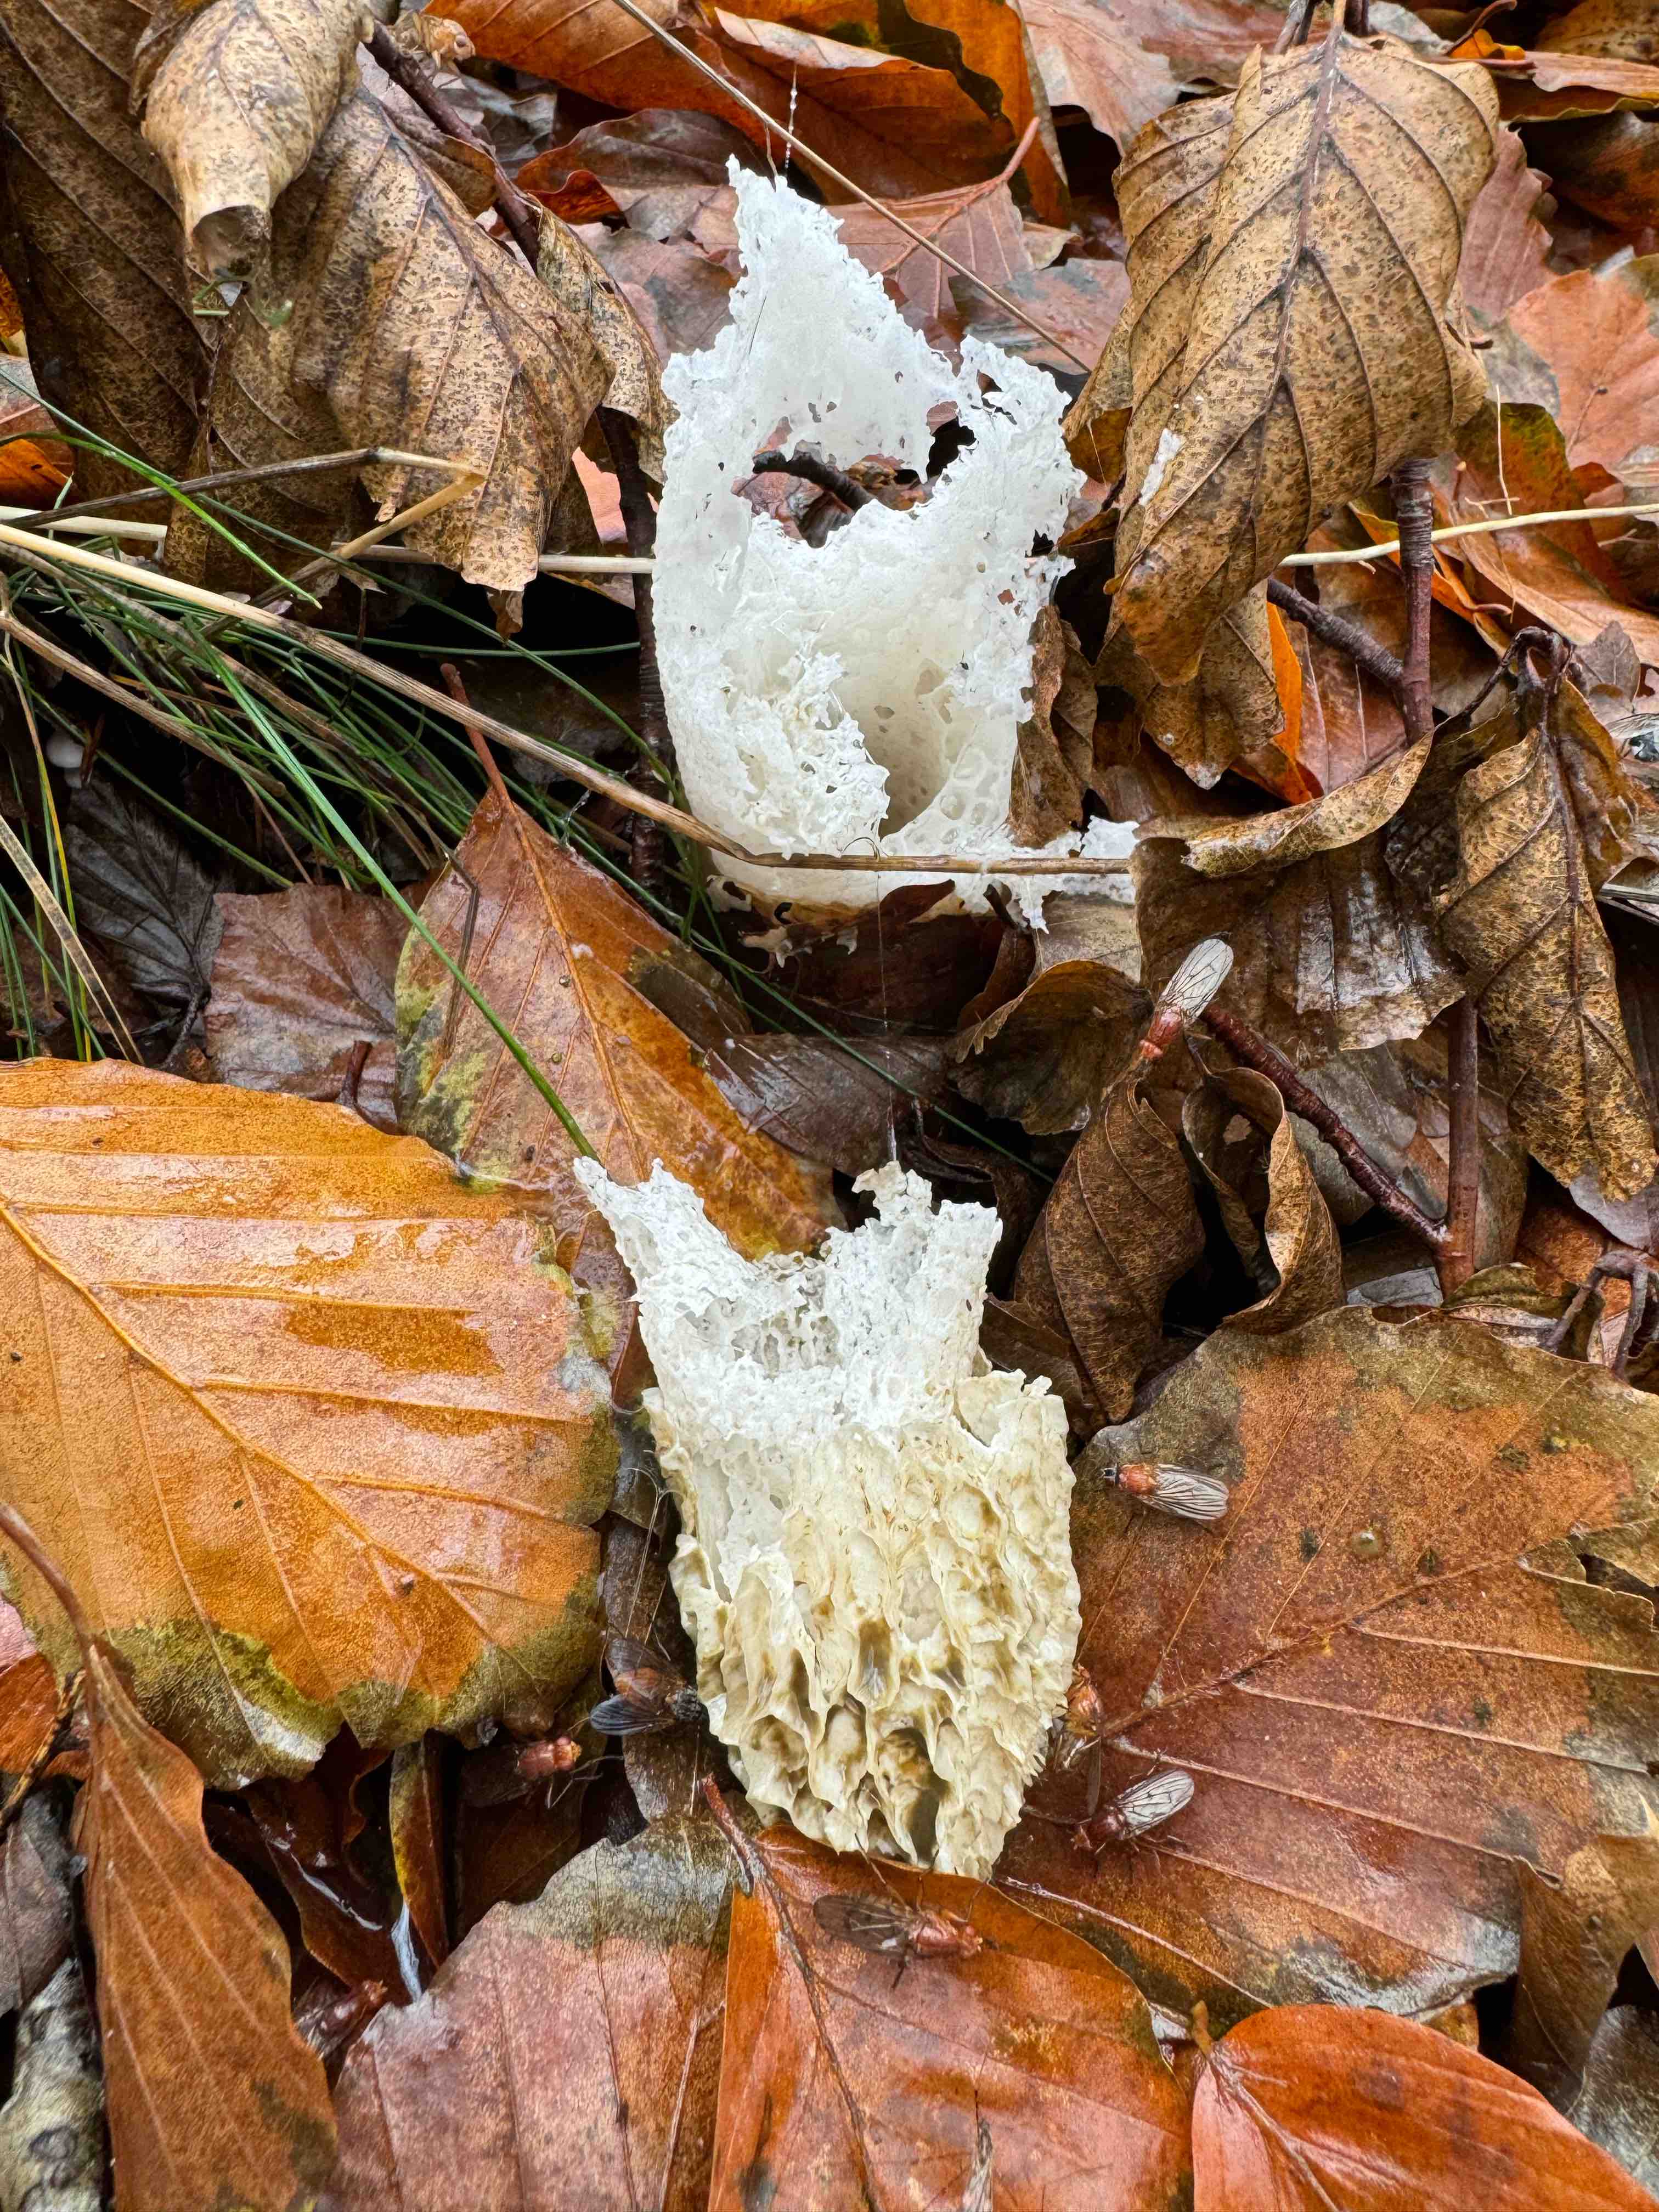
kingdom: Fungi
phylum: Basidiomycota
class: Agaricomycetes
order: Phallales
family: Phallaceae
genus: Phallus
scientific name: Phallus impudicus
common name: almindelig stinksvamp
